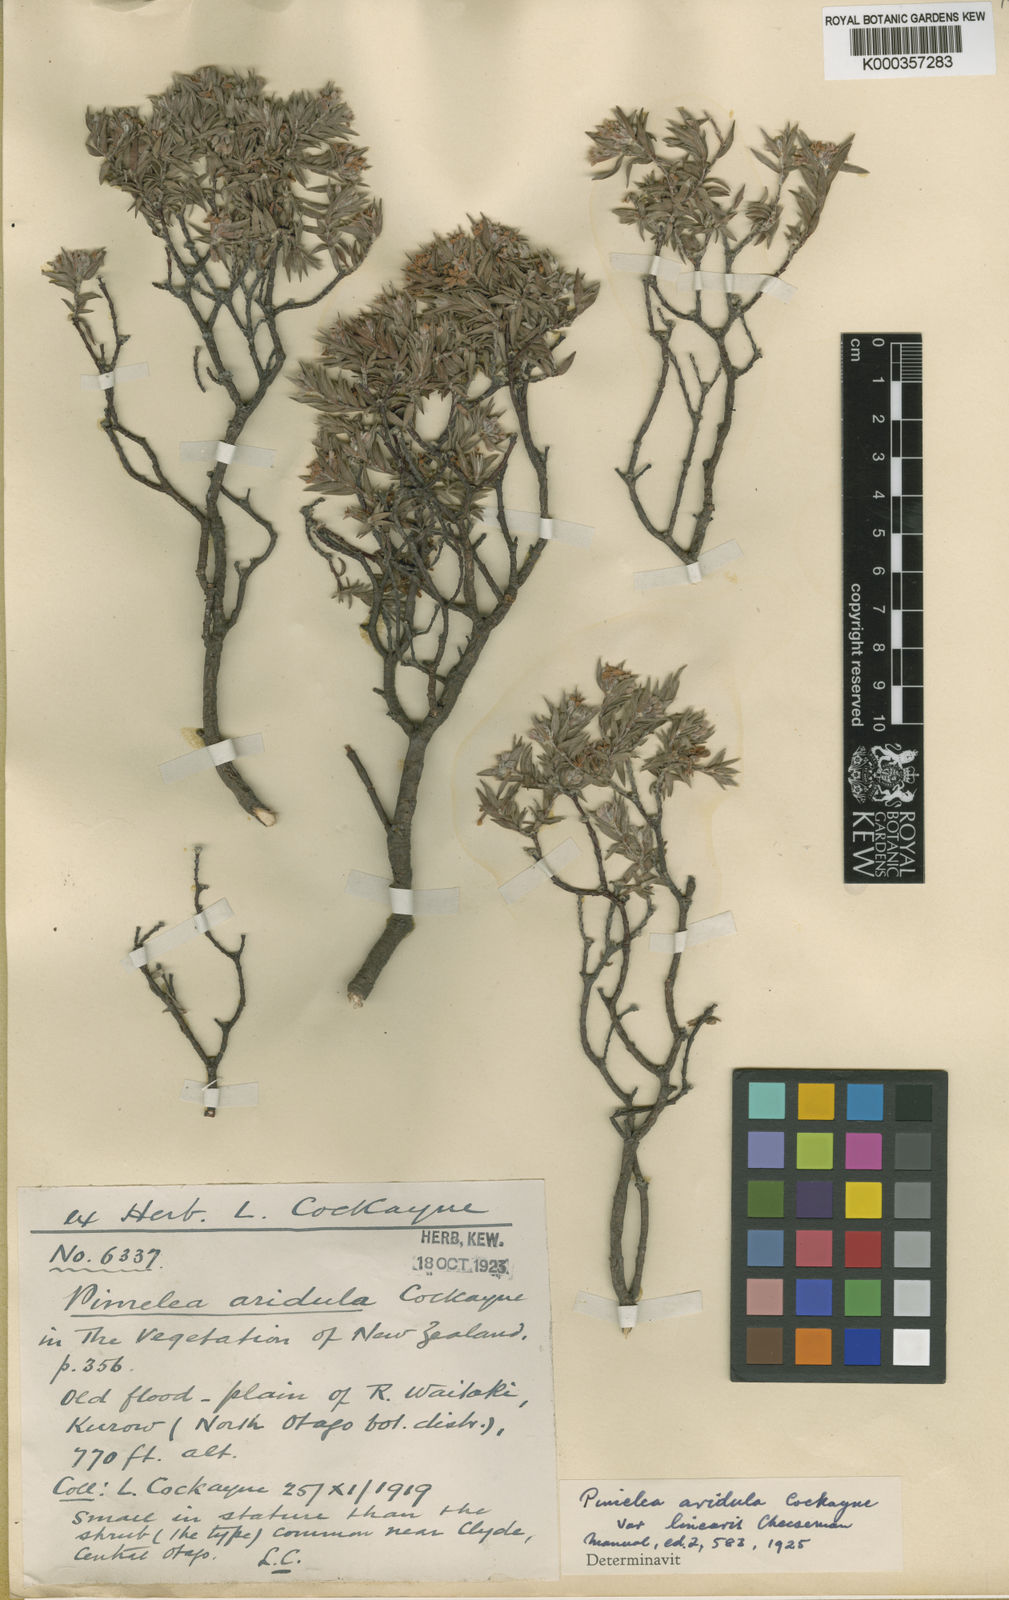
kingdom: Plantae
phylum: Tracheophyta
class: Magnoliopsida
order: Malvales
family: Thymelaeaceae
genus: Pimelea
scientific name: Pimelea
